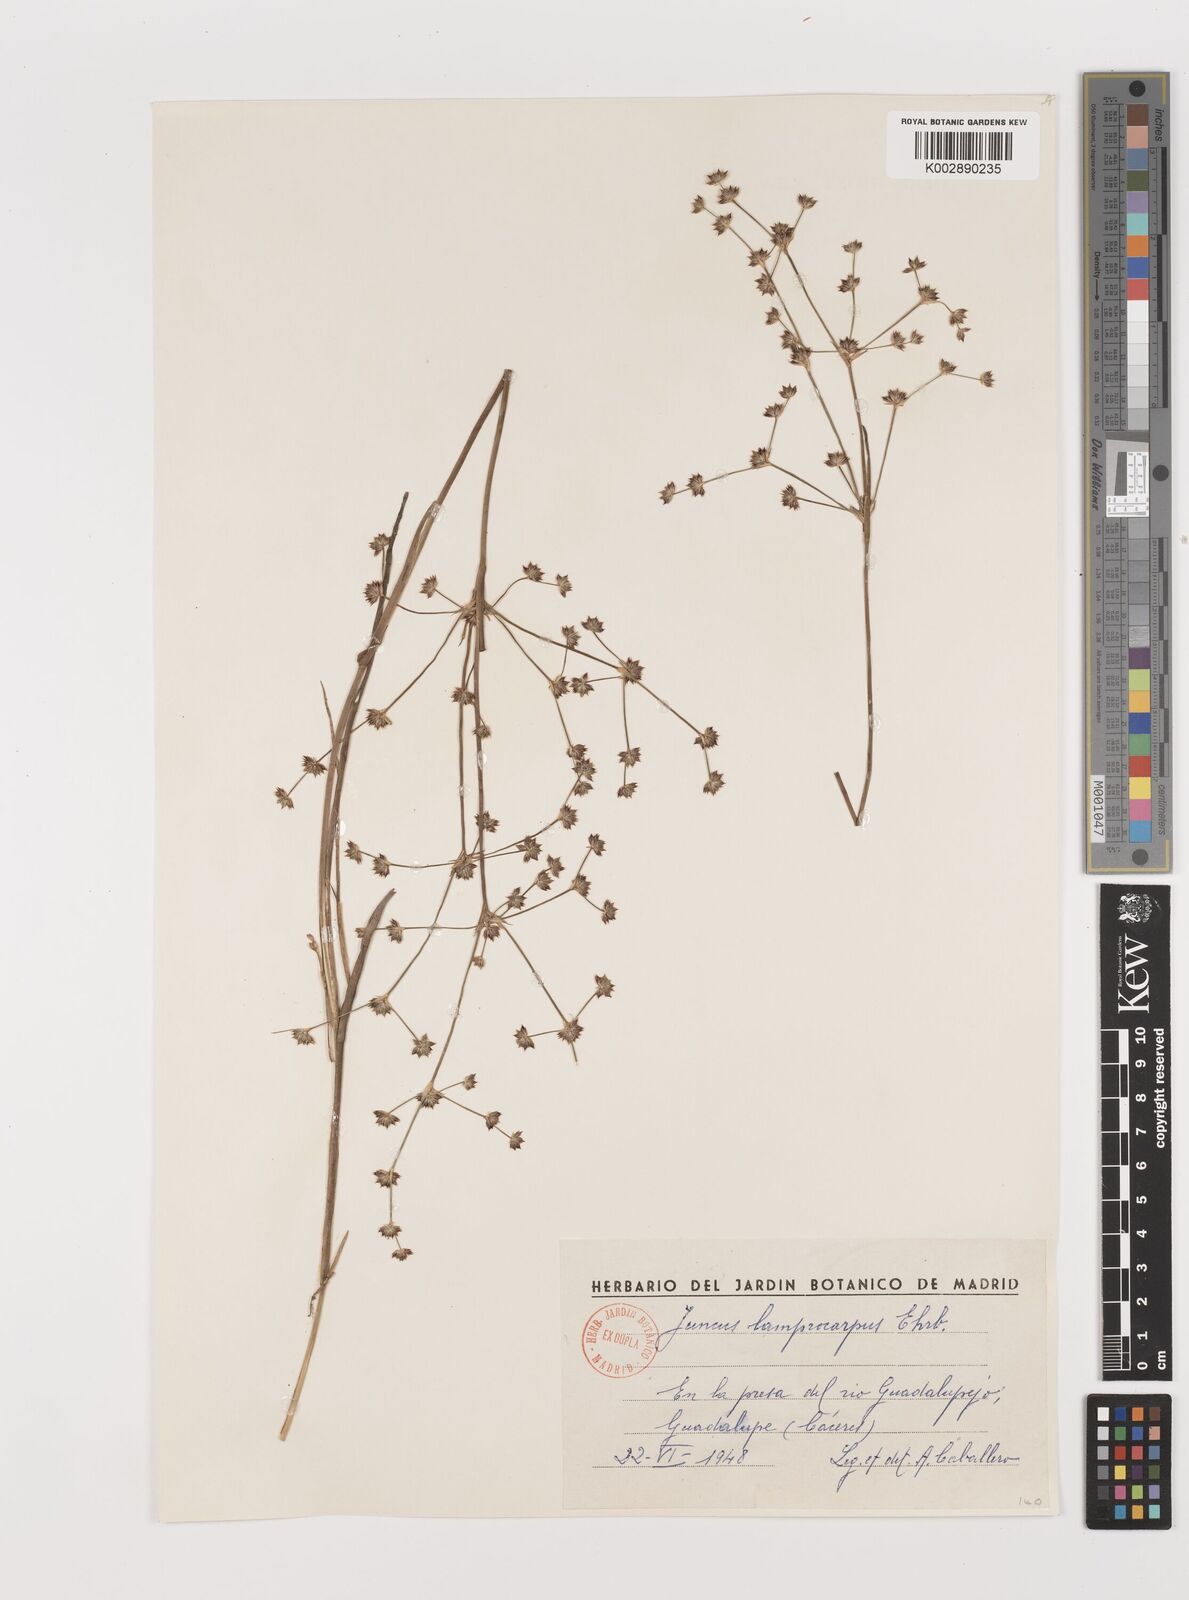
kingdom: Plantae
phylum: Tracheophyta
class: Liliopsida
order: Poales
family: Juncaceae
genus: Juncus
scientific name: Juncus articulatus
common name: Jointed rush
